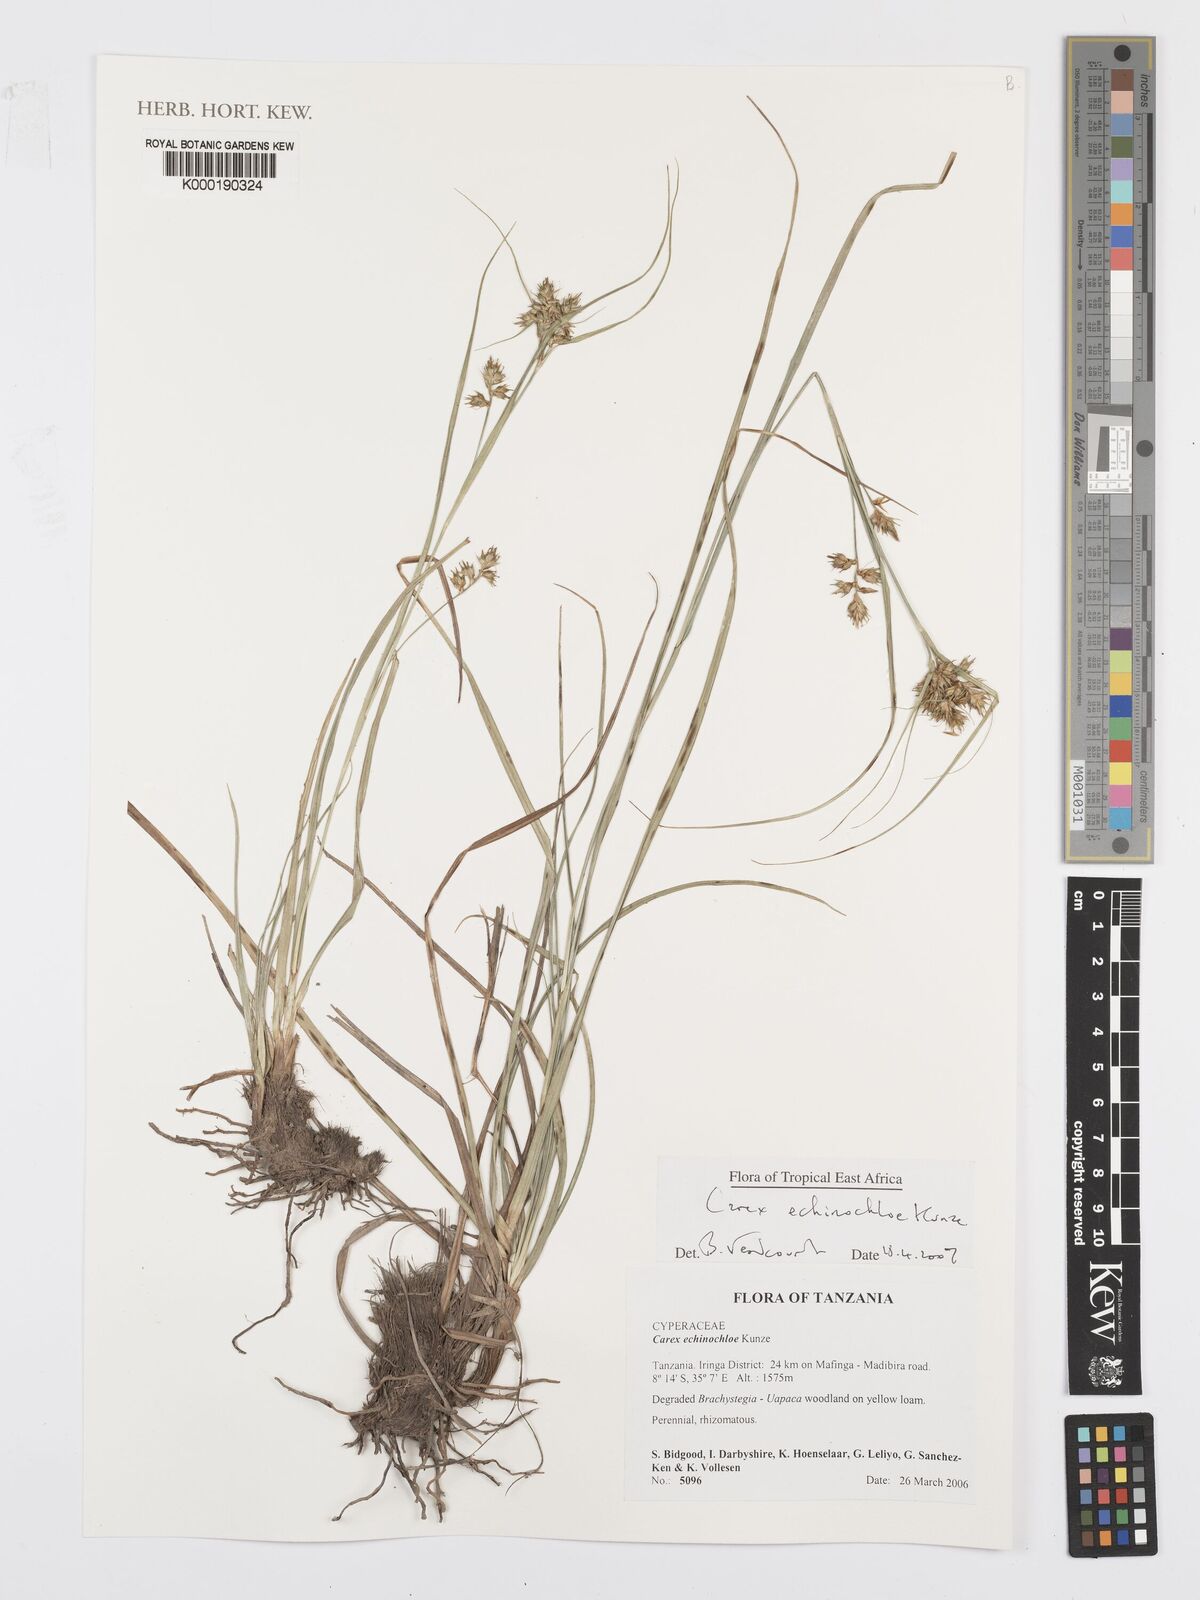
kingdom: Plantae
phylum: Tracheophyta
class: Liliopsida
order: Poales
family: Cyperaceae
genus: Carex
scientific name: Carex echinochloe
